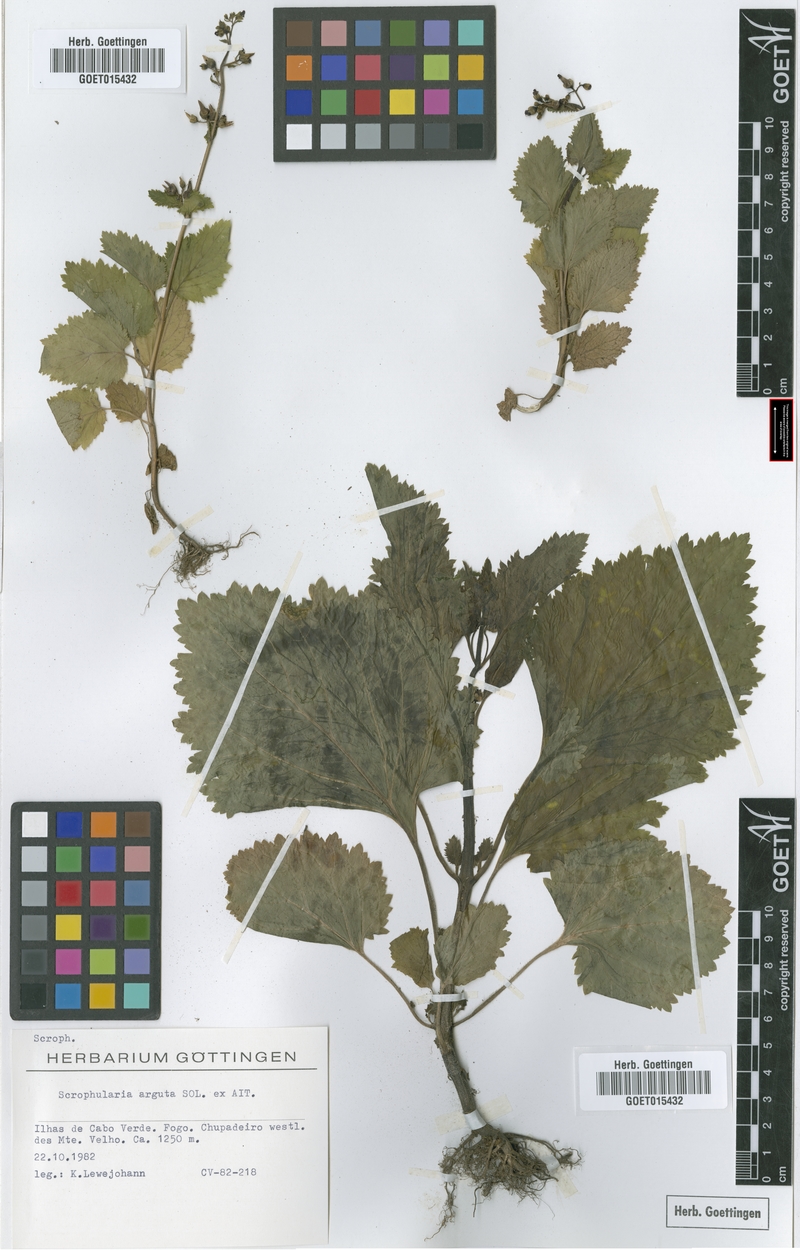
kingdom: Plantae
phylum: Tracheophyta
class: Magnoliopsida
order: Lamiales
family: Scrophulariaceae
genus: Scrophularia
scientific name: Scrophularia arguta
